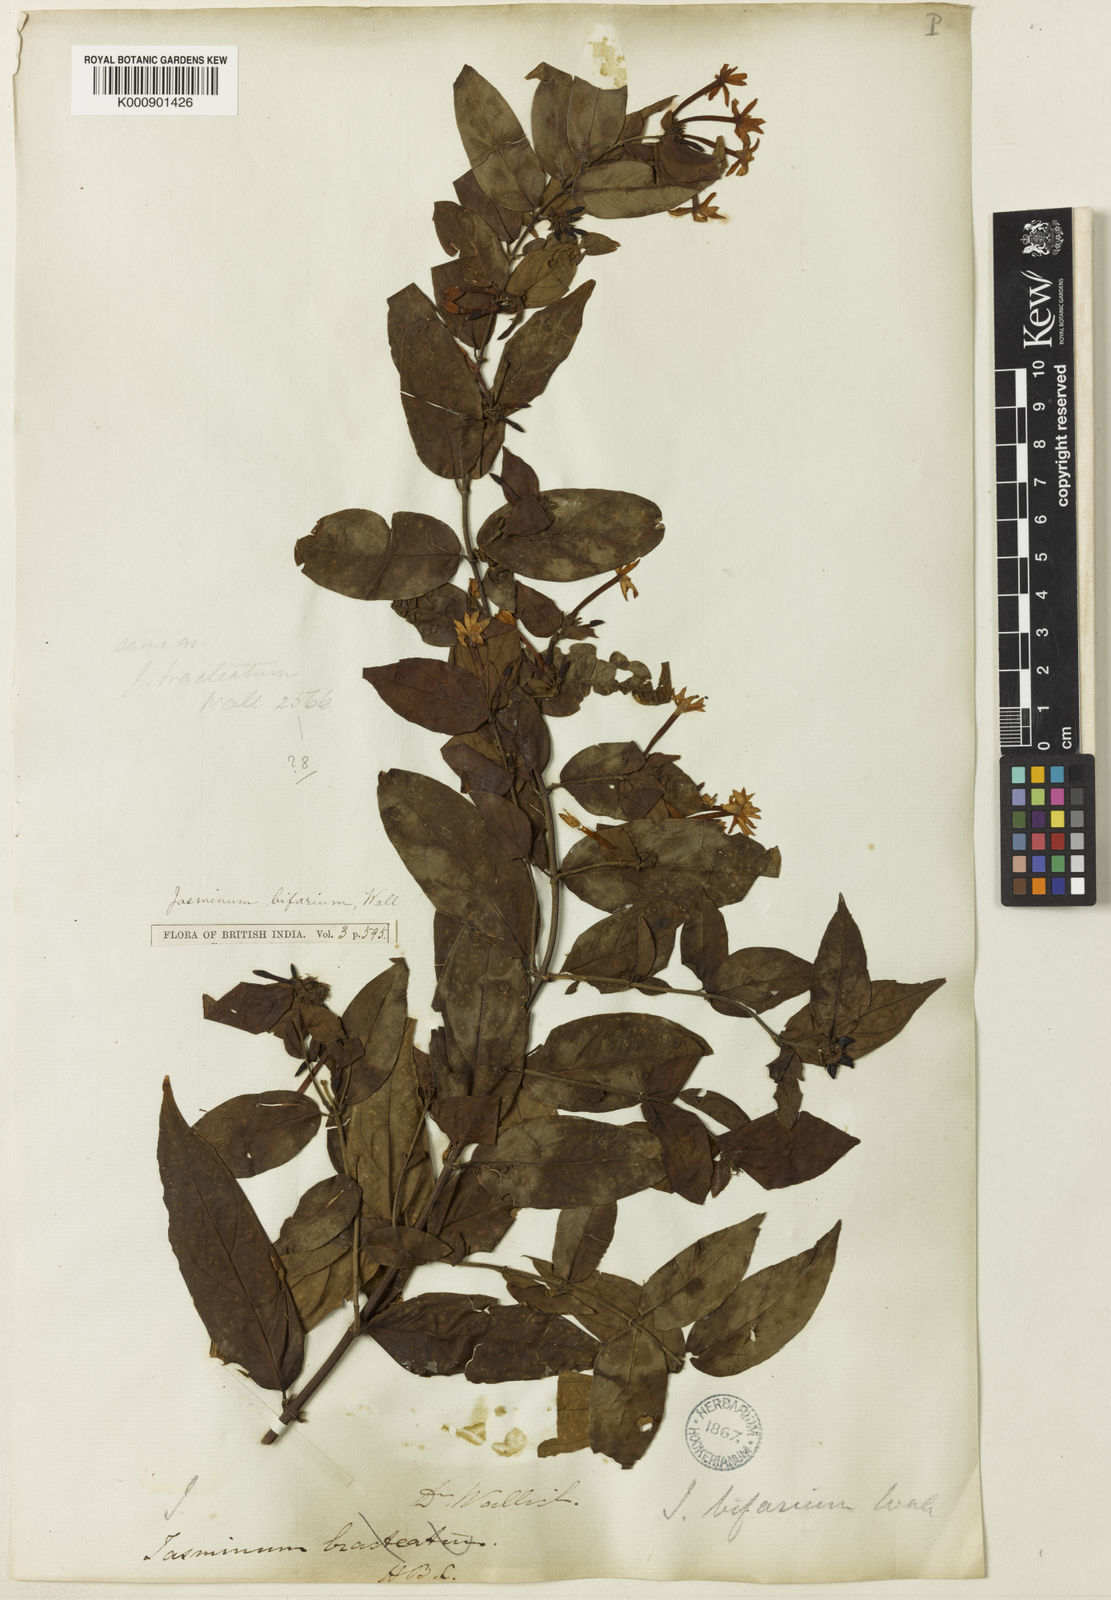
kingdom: Plantae
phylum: Tracheophyta
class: Magnoliopsida
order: Lamiales
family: Oleaceae
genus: Jasminum
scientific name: Jasminum elongatum
